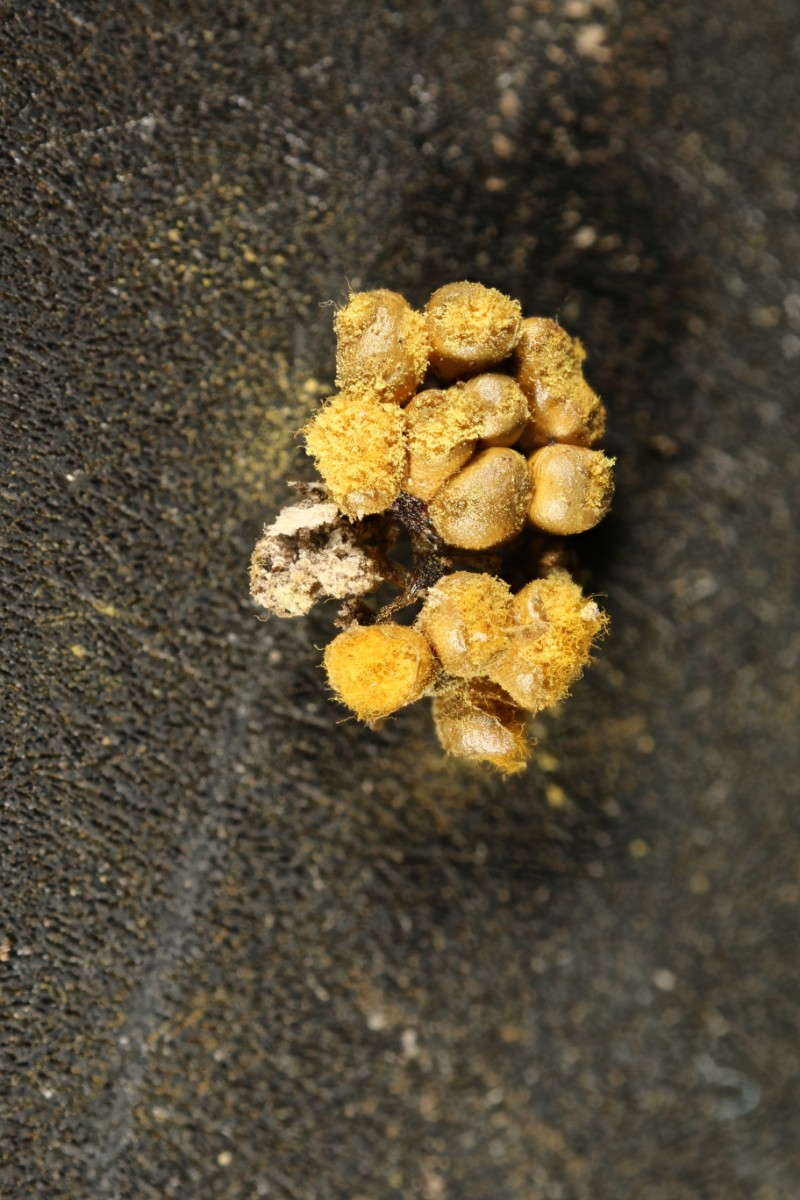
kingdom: Protozoa
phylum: Mycetozoa
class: Myxomycetes
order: Trichiales
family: Trichiaceae
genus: Trichia
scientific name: Trichia varia
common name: foranderlig hårbold
